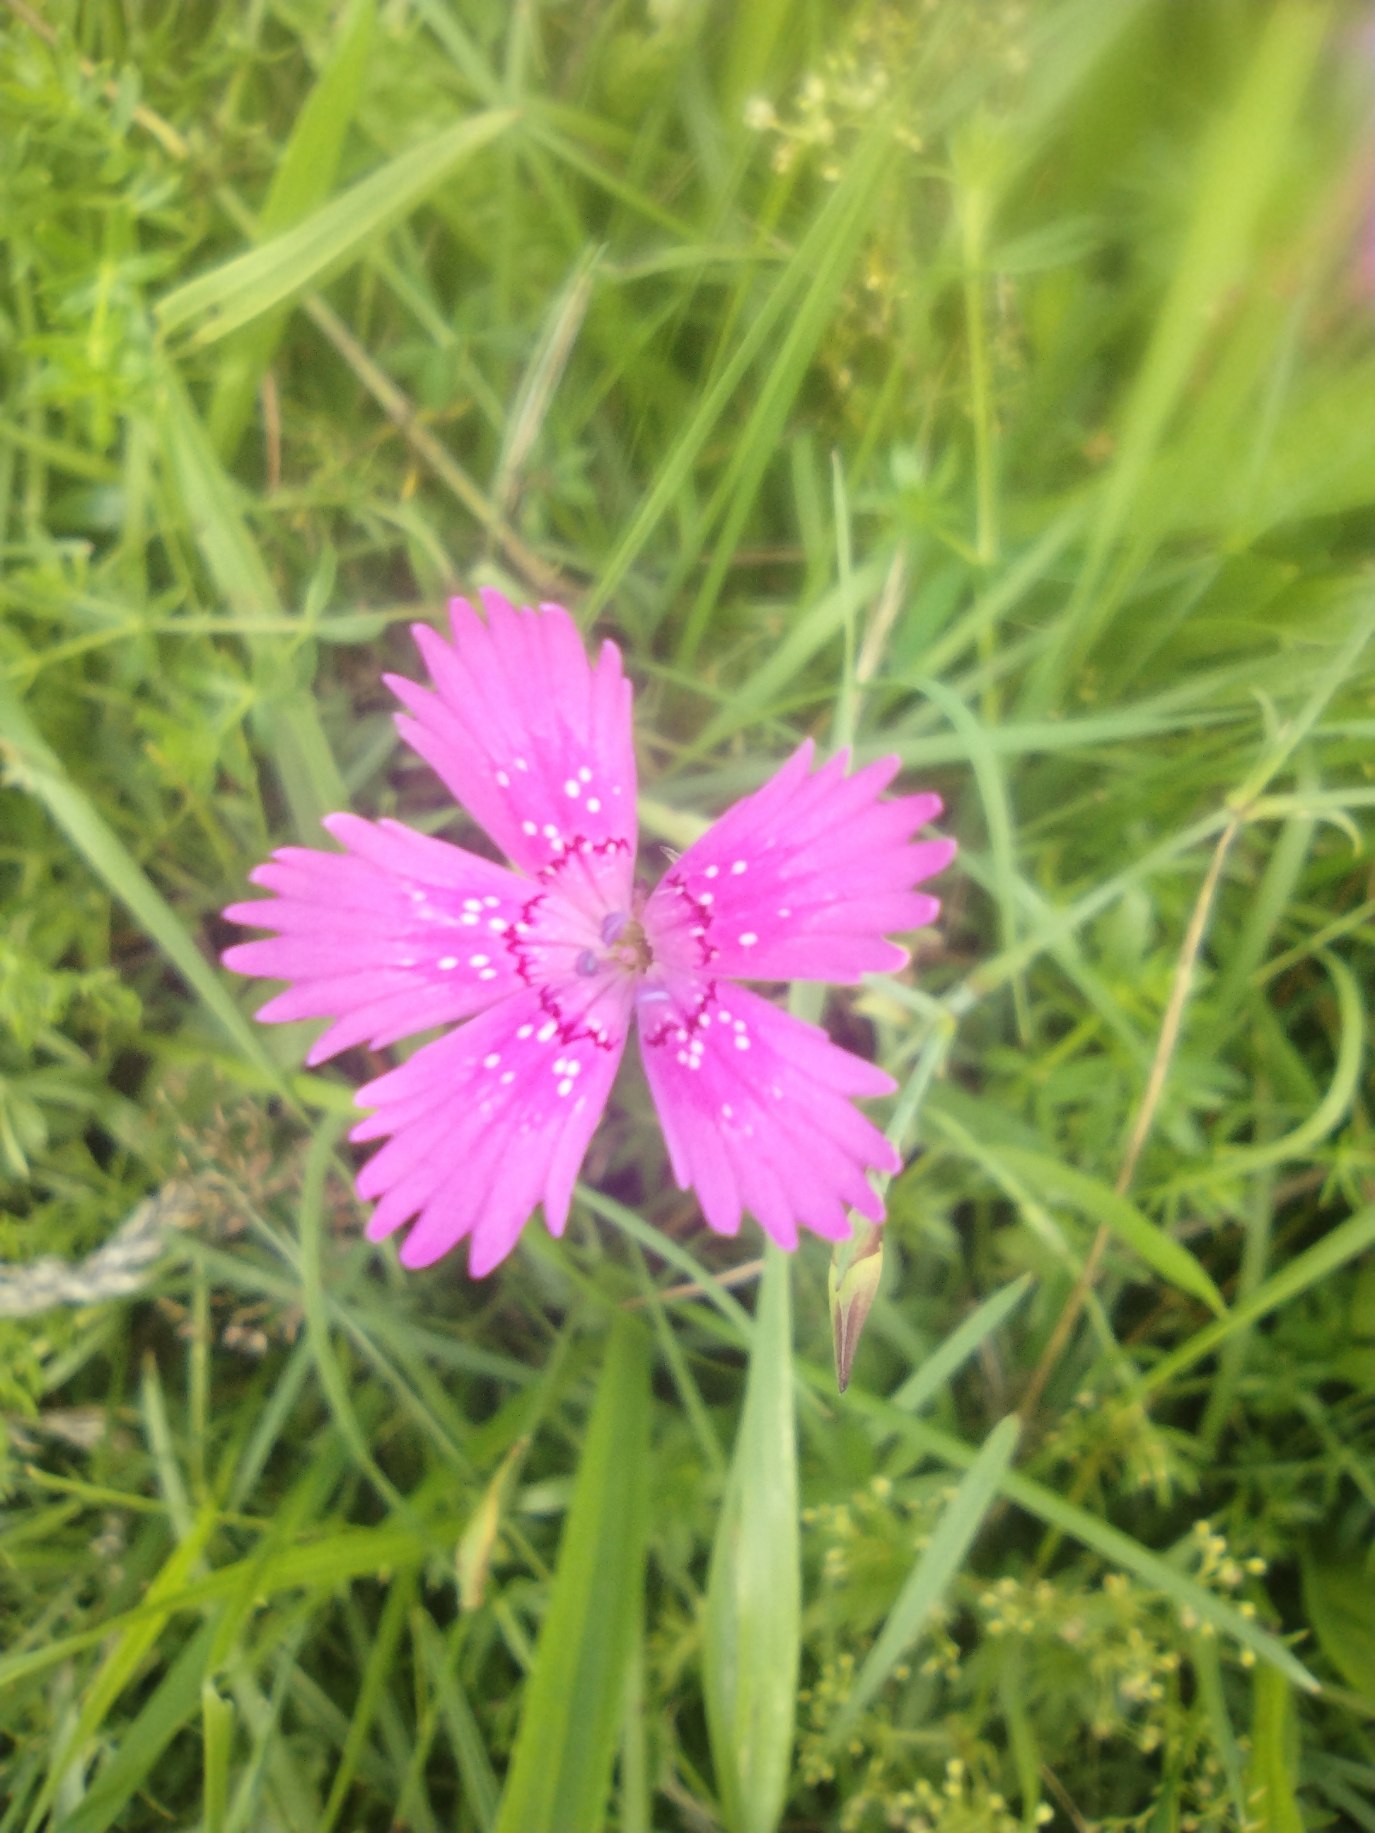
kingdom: Plantae
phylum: Tracheophyta
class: Magnoliopsida
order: Caryophyllales
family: Caryophyllaceae
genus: Dianthus
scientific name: Dianthus deltoides
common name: Bakke-nellike
